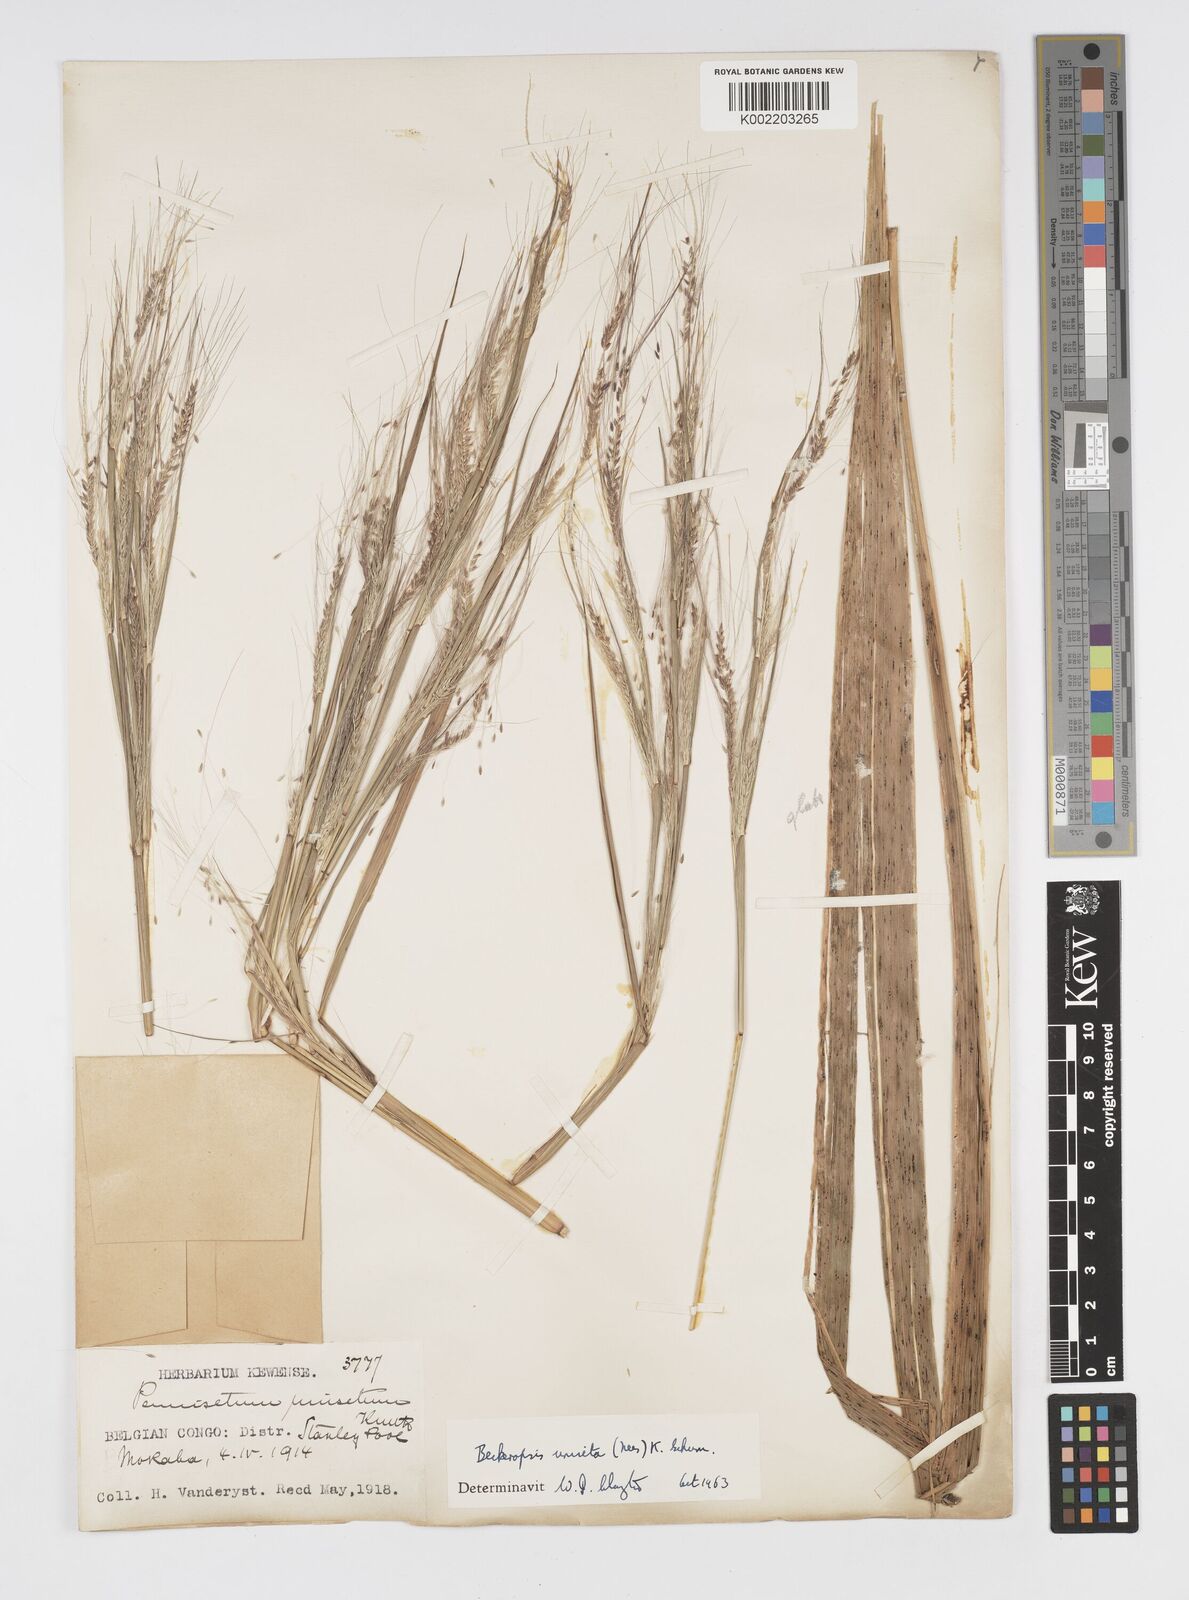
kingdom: Plantae
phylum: Tracheophyta
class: Liliopsida
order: Poales
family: Poaceae
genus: Cenchrus
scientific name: Cenchrus unisetus
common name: Natal grass
